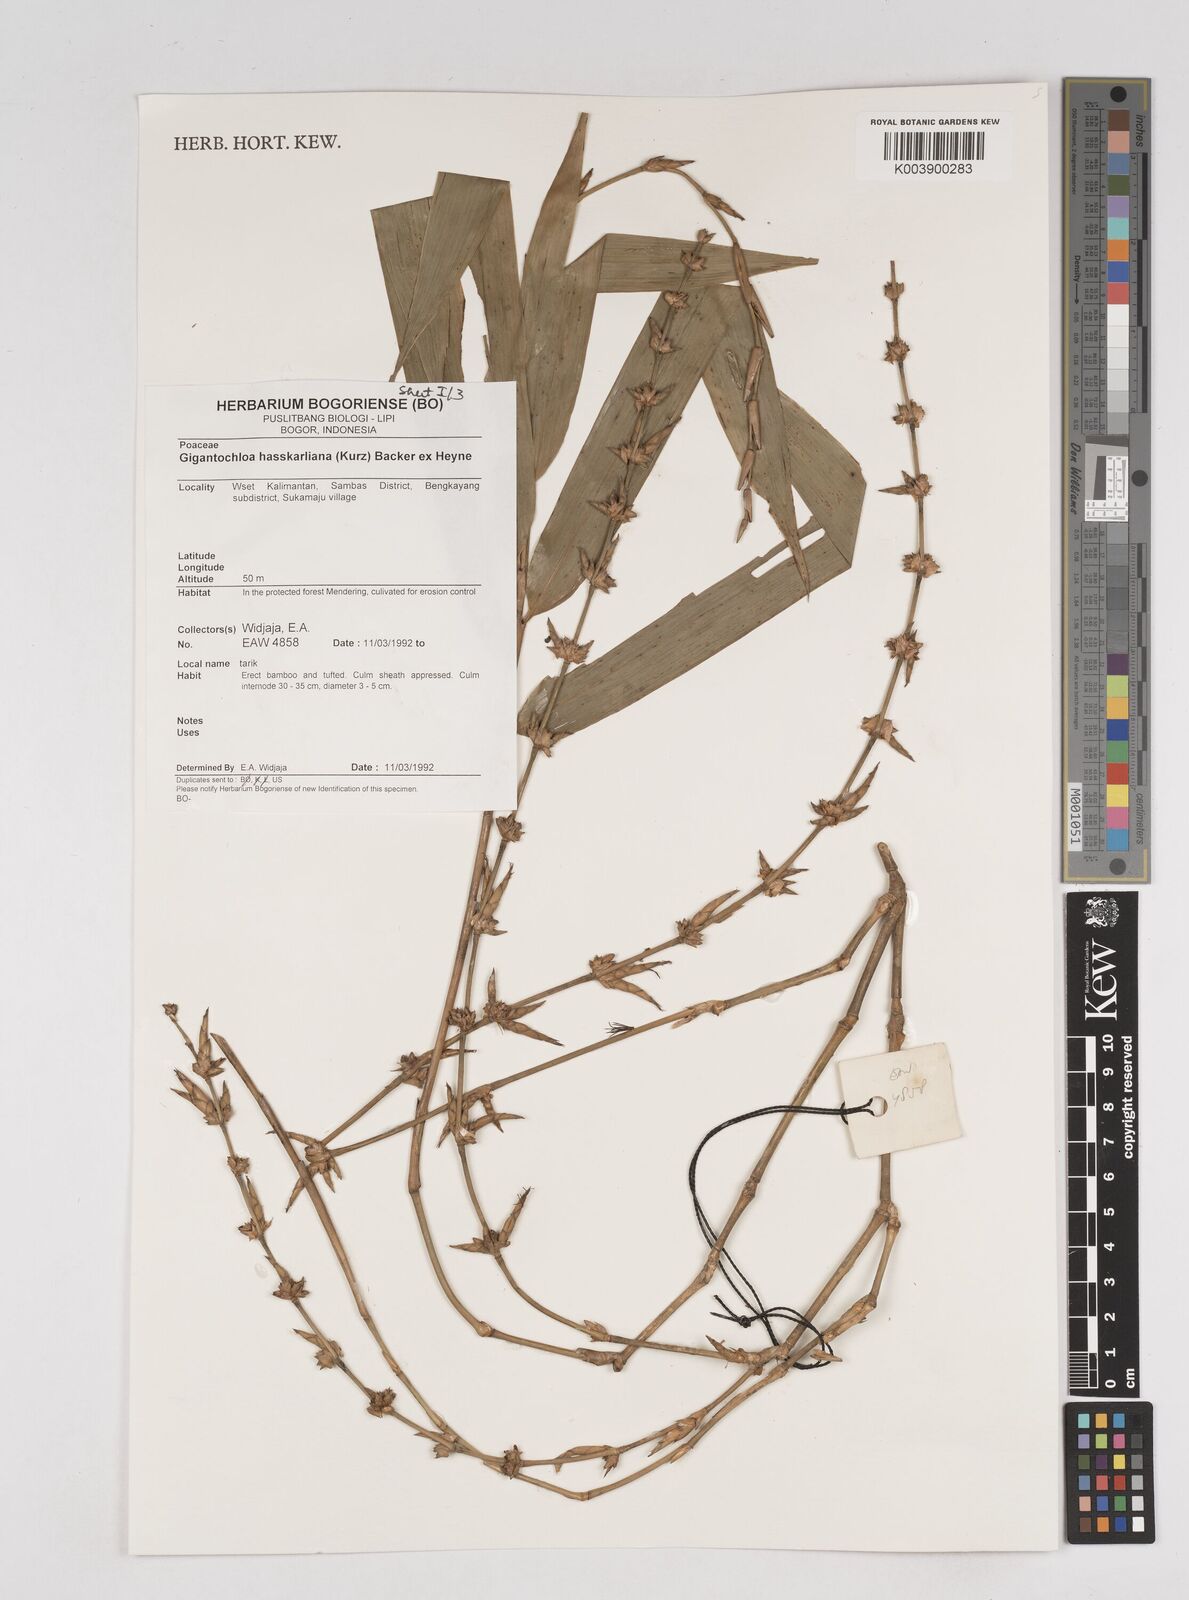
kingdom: Plantae
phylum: Tracheophyta
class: Liliopsida
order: Poales
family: Poaceae
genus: Gigantochloa
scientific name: Gigantochloa hasskarliana
